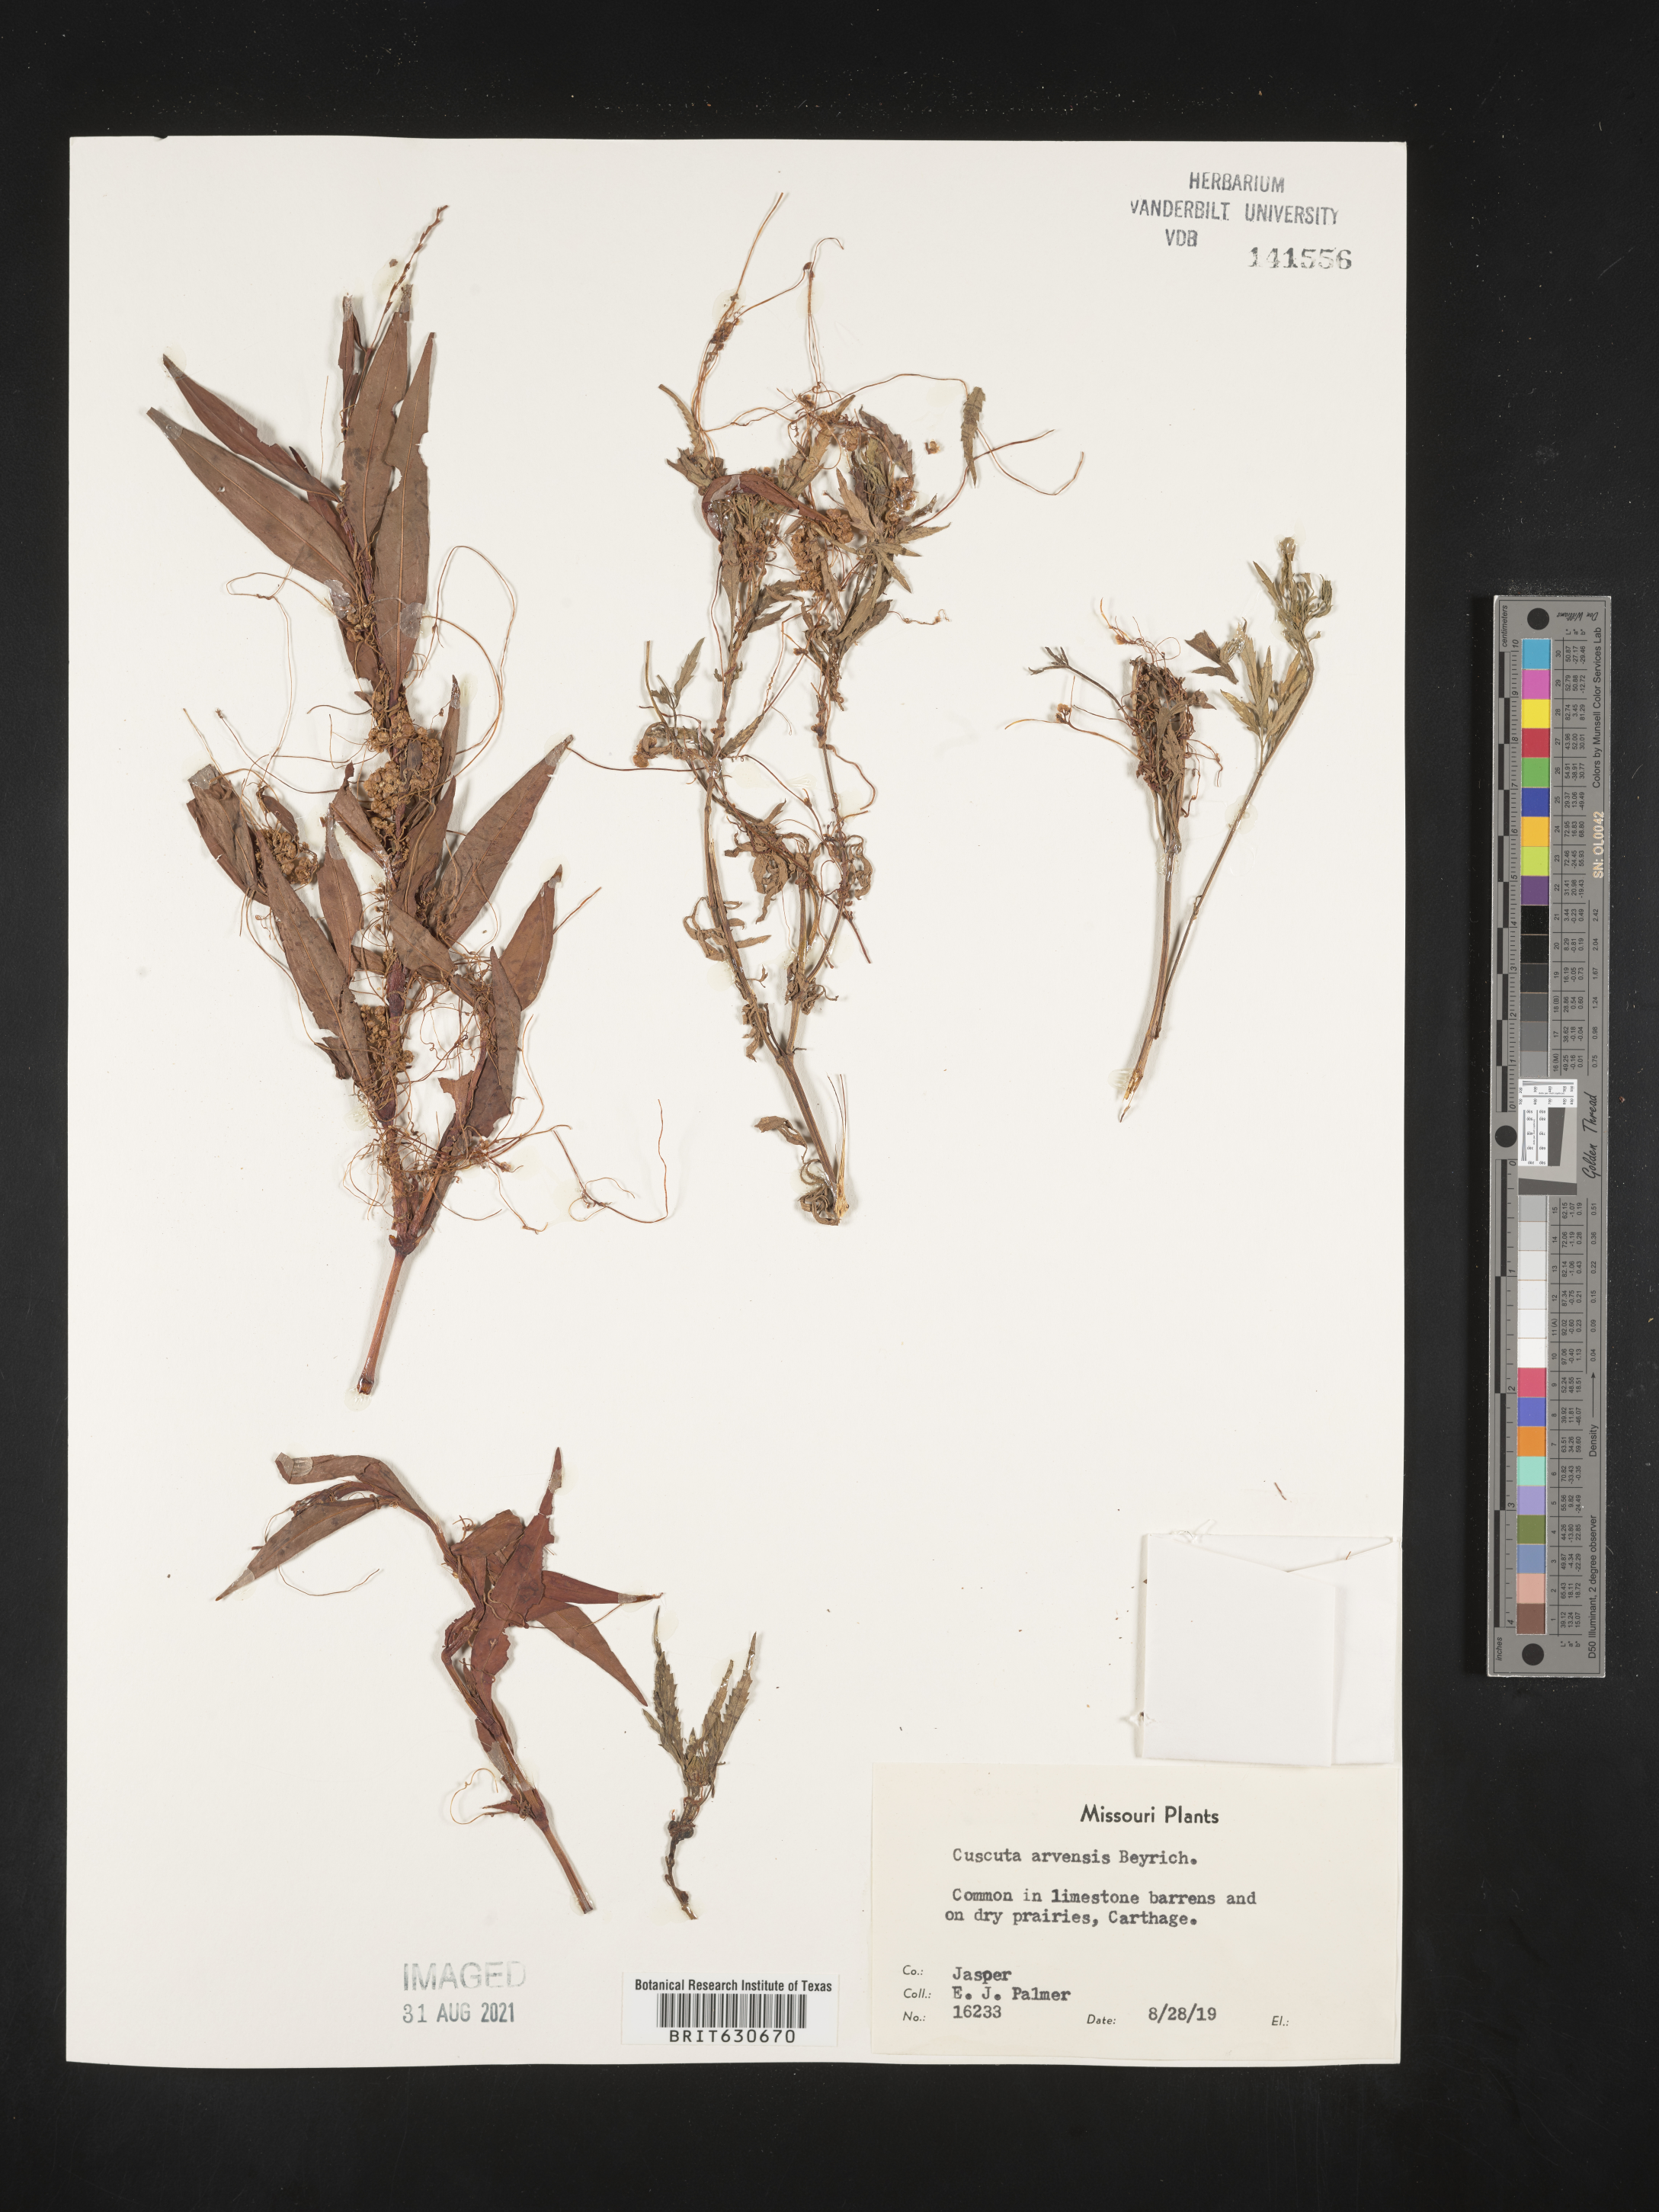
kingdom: Plantae
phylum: Tracheophyta
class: Magnoliopsida
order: Solanales
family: Convolvulaceae
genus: Cuscuta
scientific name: Cuscuta campestris
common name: Yellow dodder
